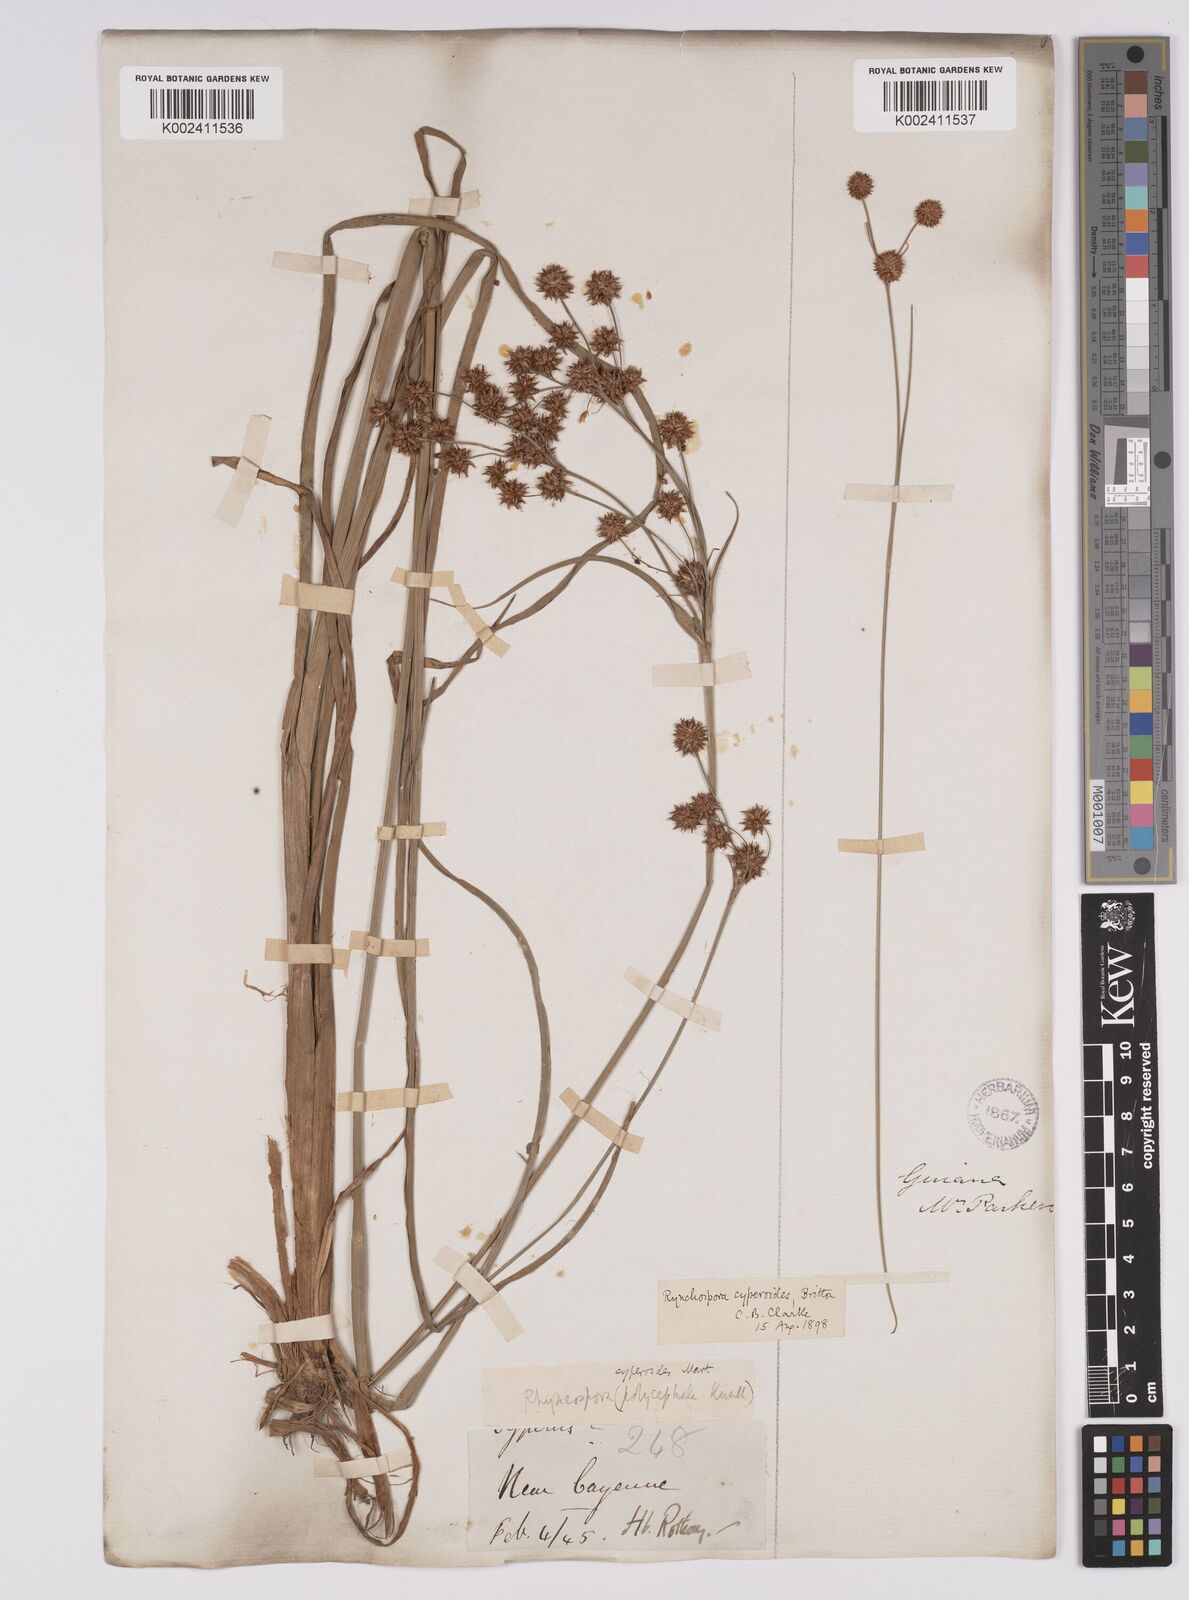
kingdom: Plantae
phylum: Tracheophyta
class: Liliopsida
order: Poales
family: Cyperaceae
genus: Rhynchospora
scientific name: Rhynchospora holoschoenoides
